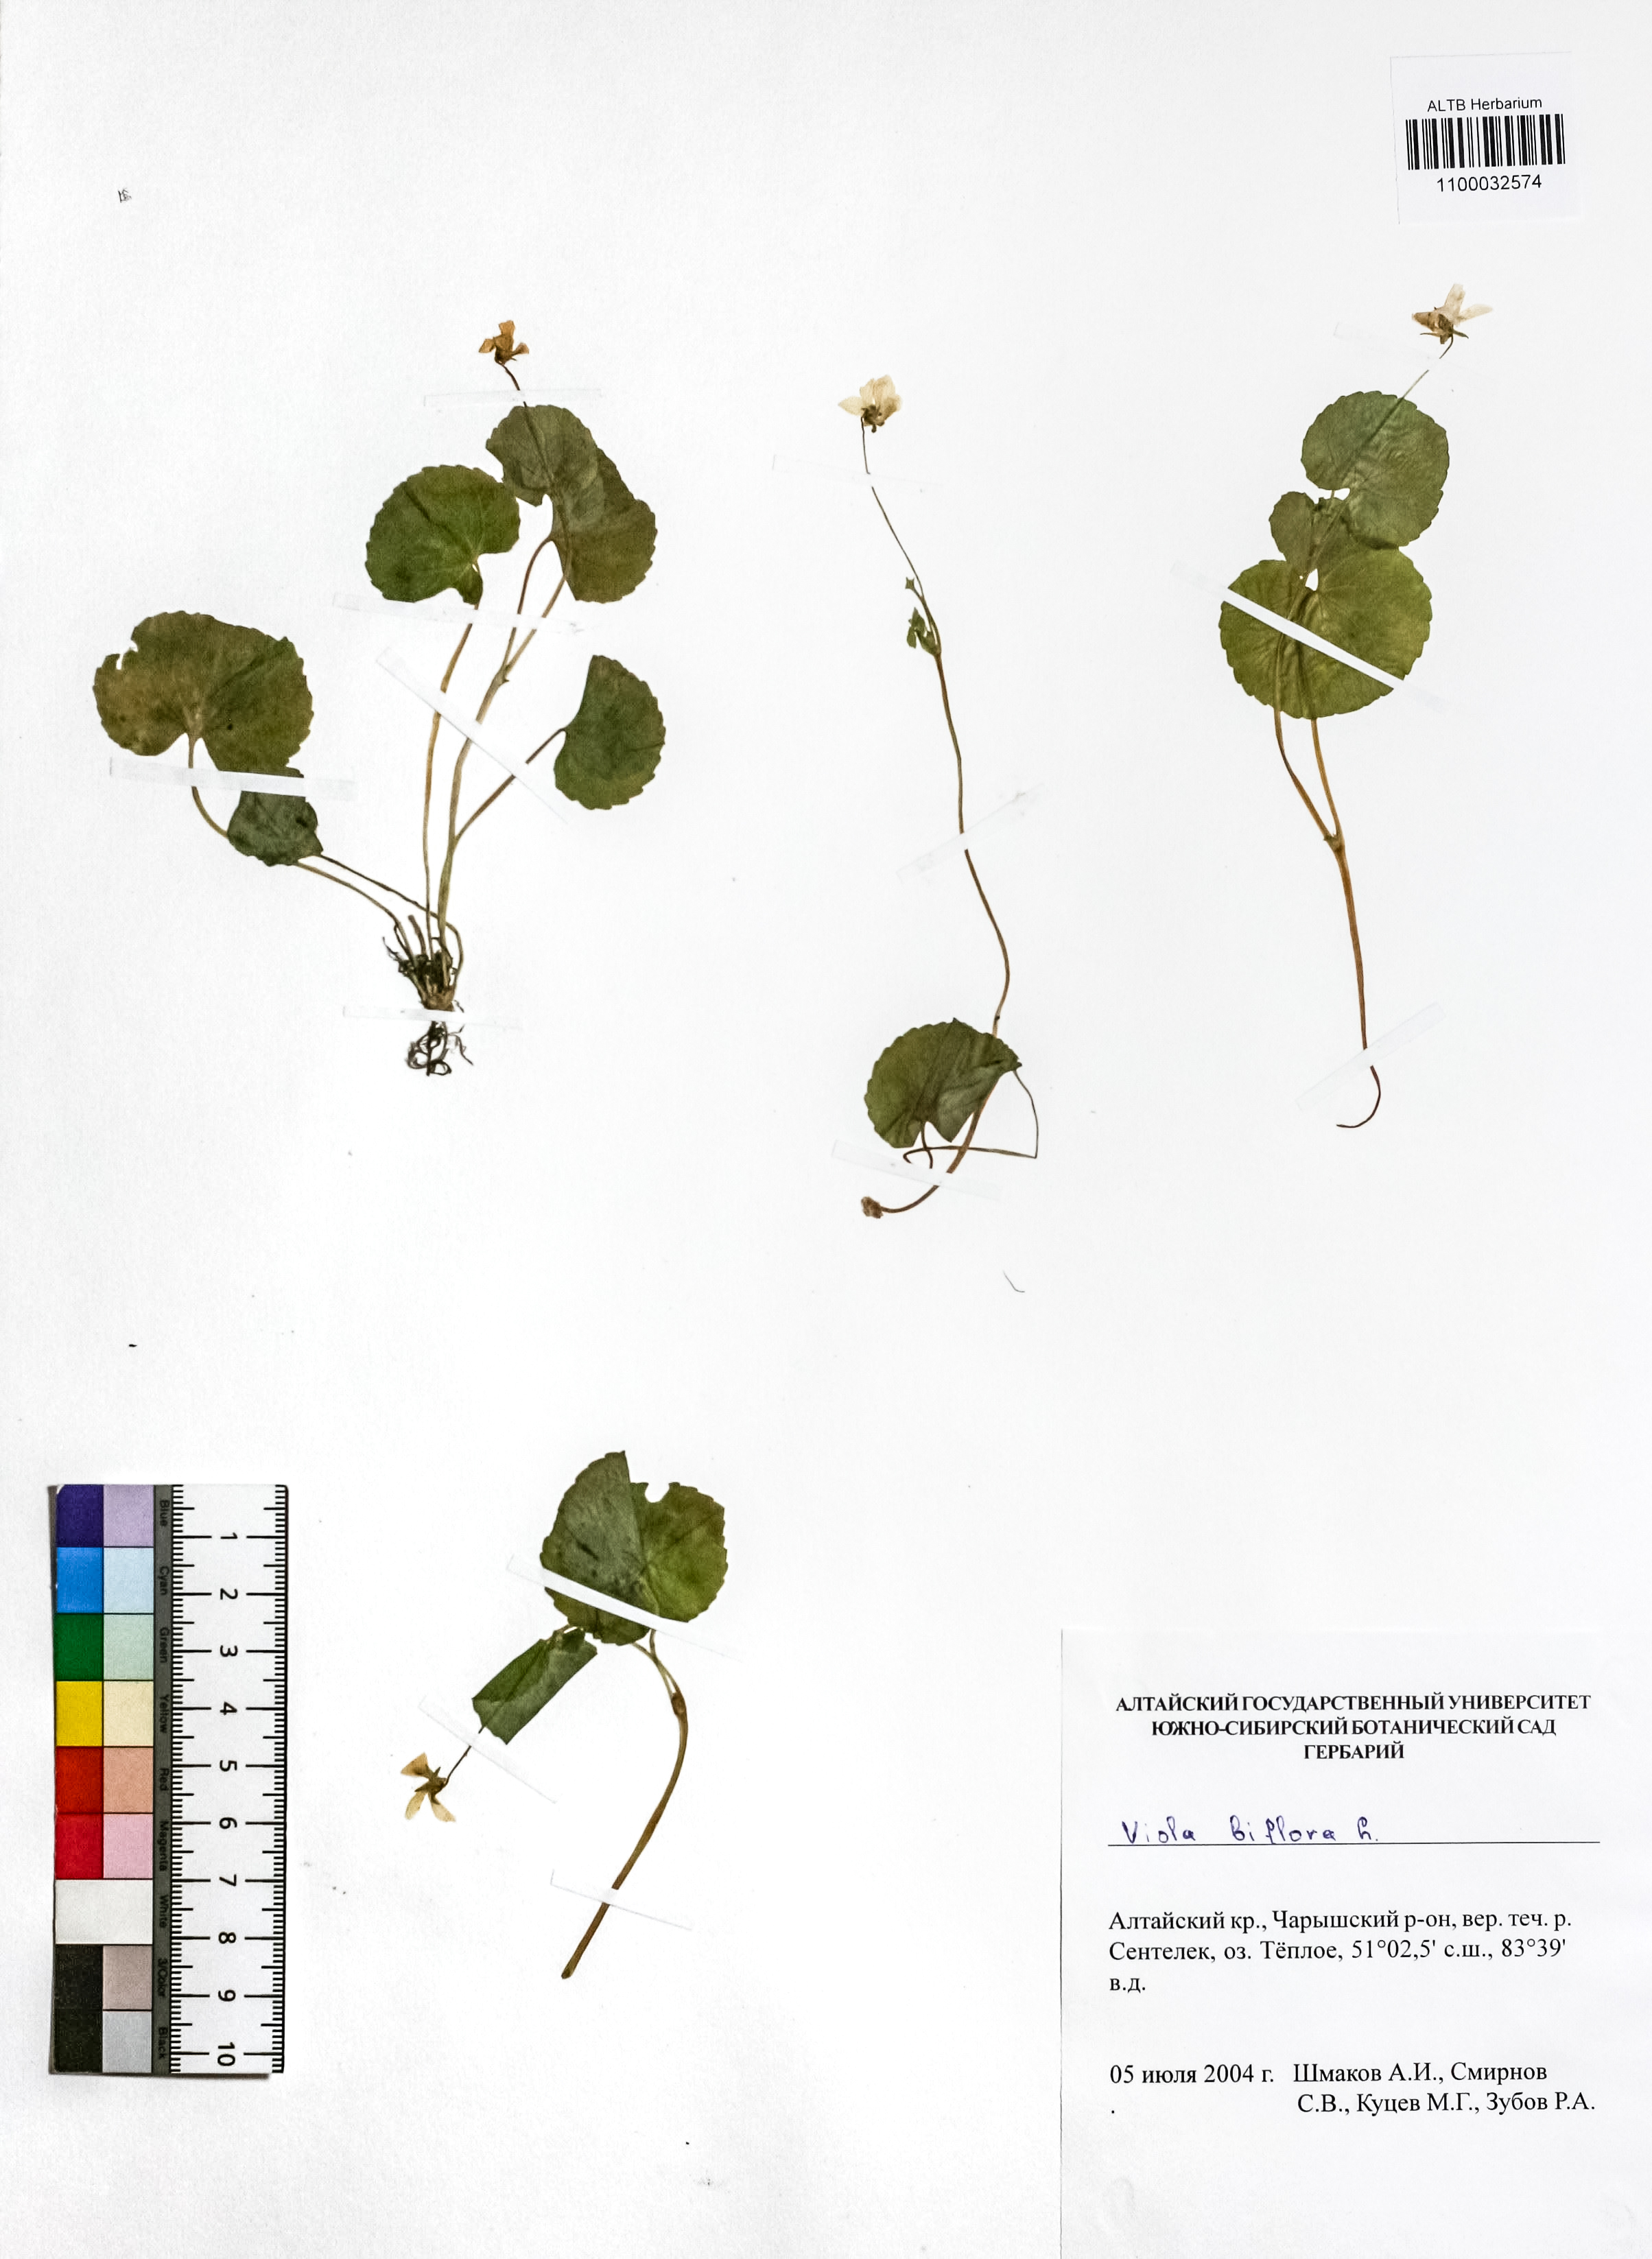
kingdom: Plantae
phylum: Tracheophyta
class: Magnoliopsida
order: Malpighiales
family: Violaceae
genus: Viola
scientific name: Viola biflora
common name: Alpine yellow violet
